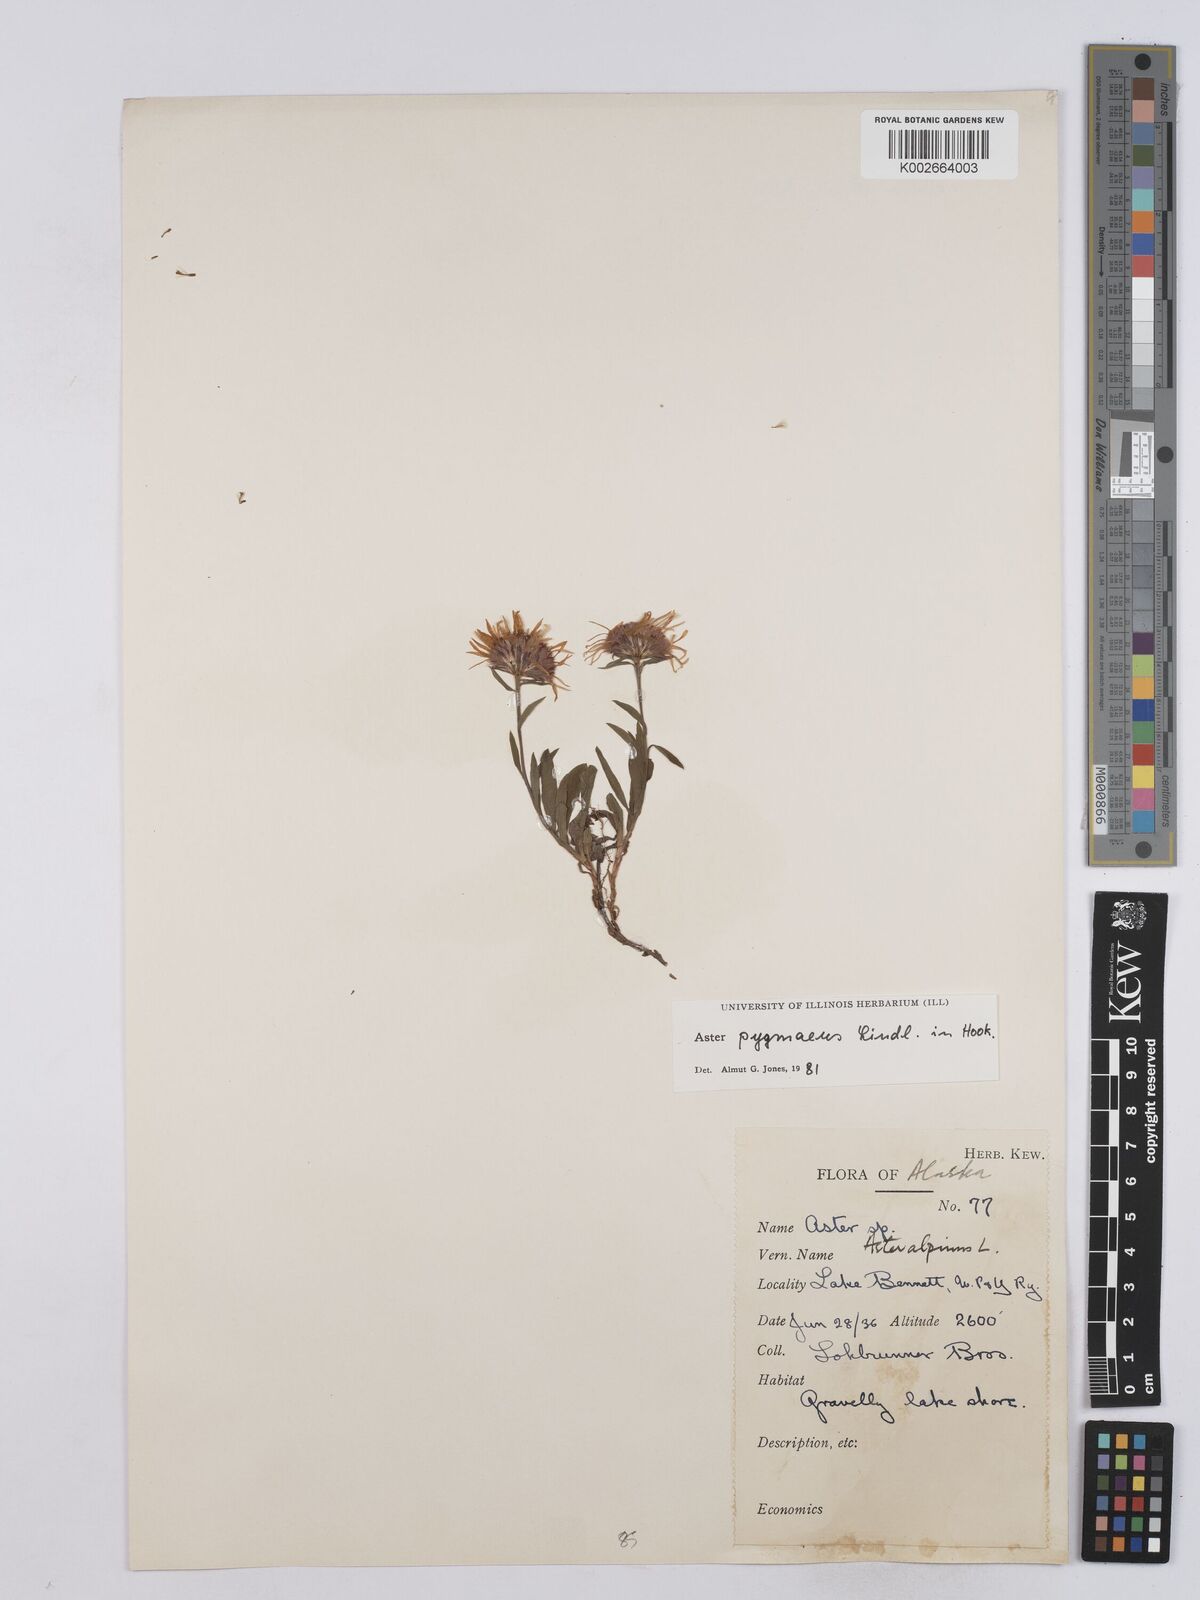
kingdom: Plantae
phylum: Tracheophyta
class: Magnoliopsida
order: Asterales
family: Asteraceae
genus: Symphyotrichum
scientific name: Symphyotrichum pygmaeum
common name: Pygmy aster
